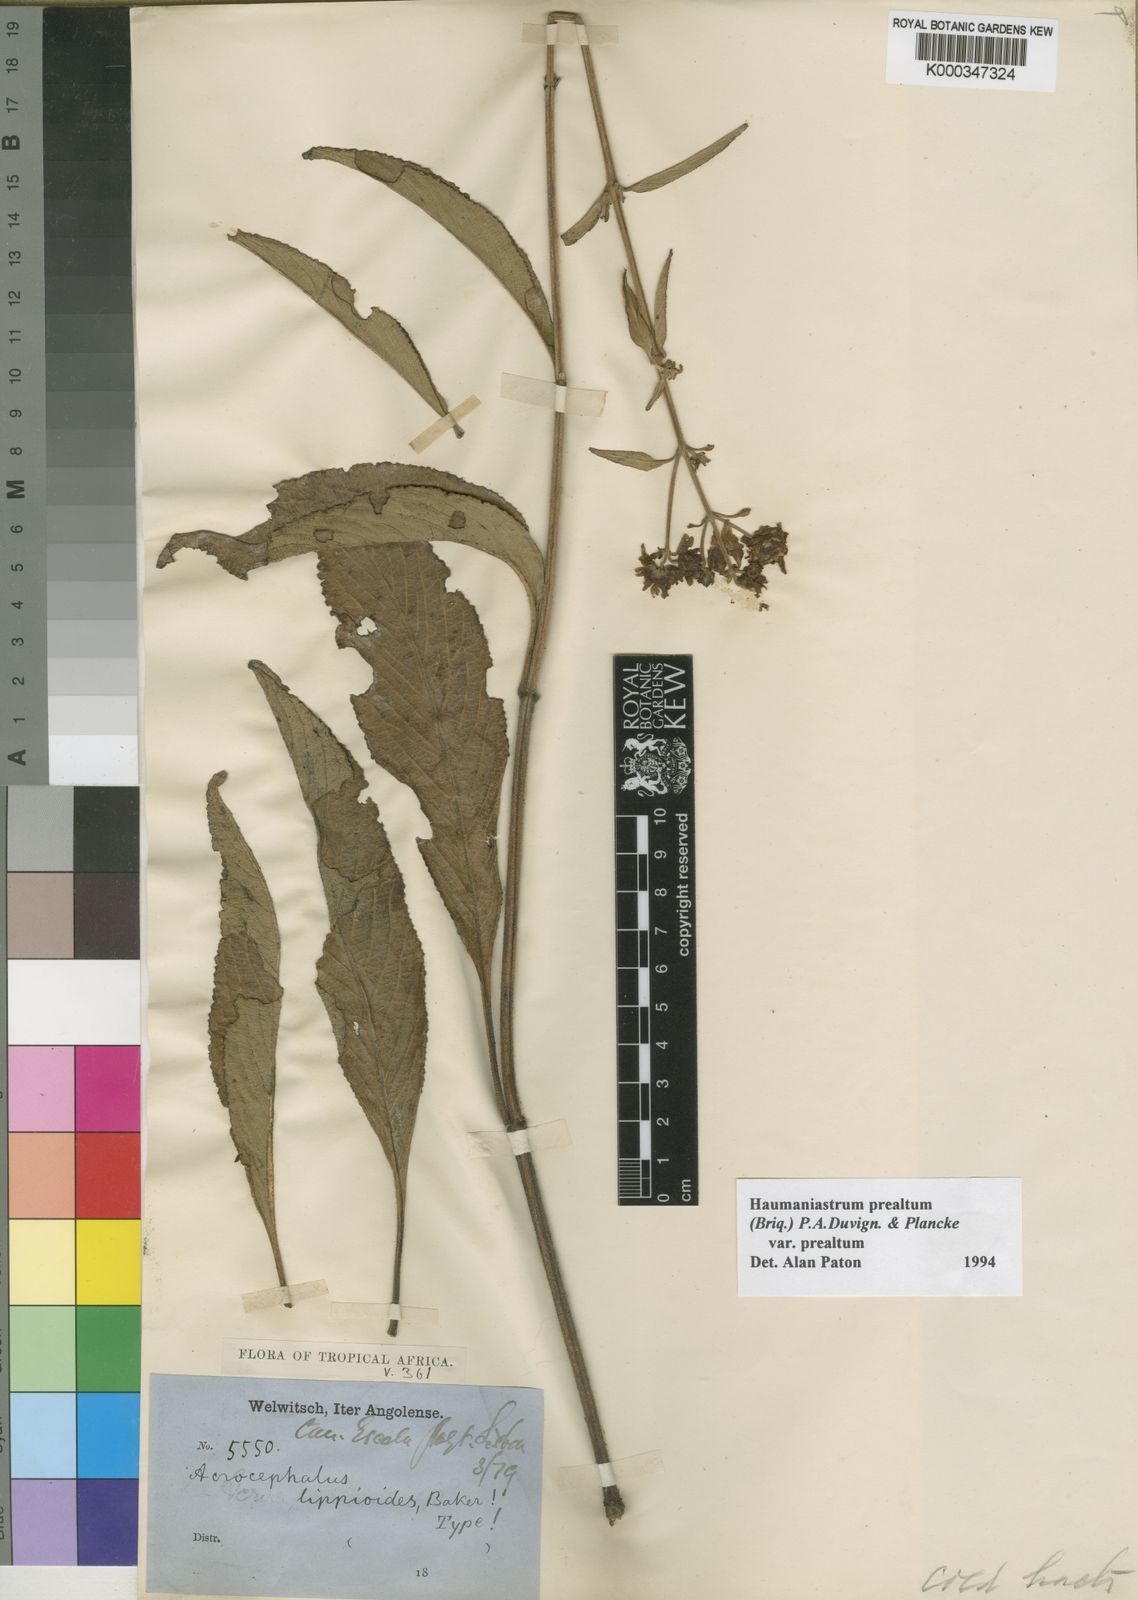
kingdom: Plantae
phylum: Tracheophyta
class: Magnoliopsida
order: Lamiales
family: Lamiaceae
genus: Haumaniastrum
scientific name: Haumaniastrum
